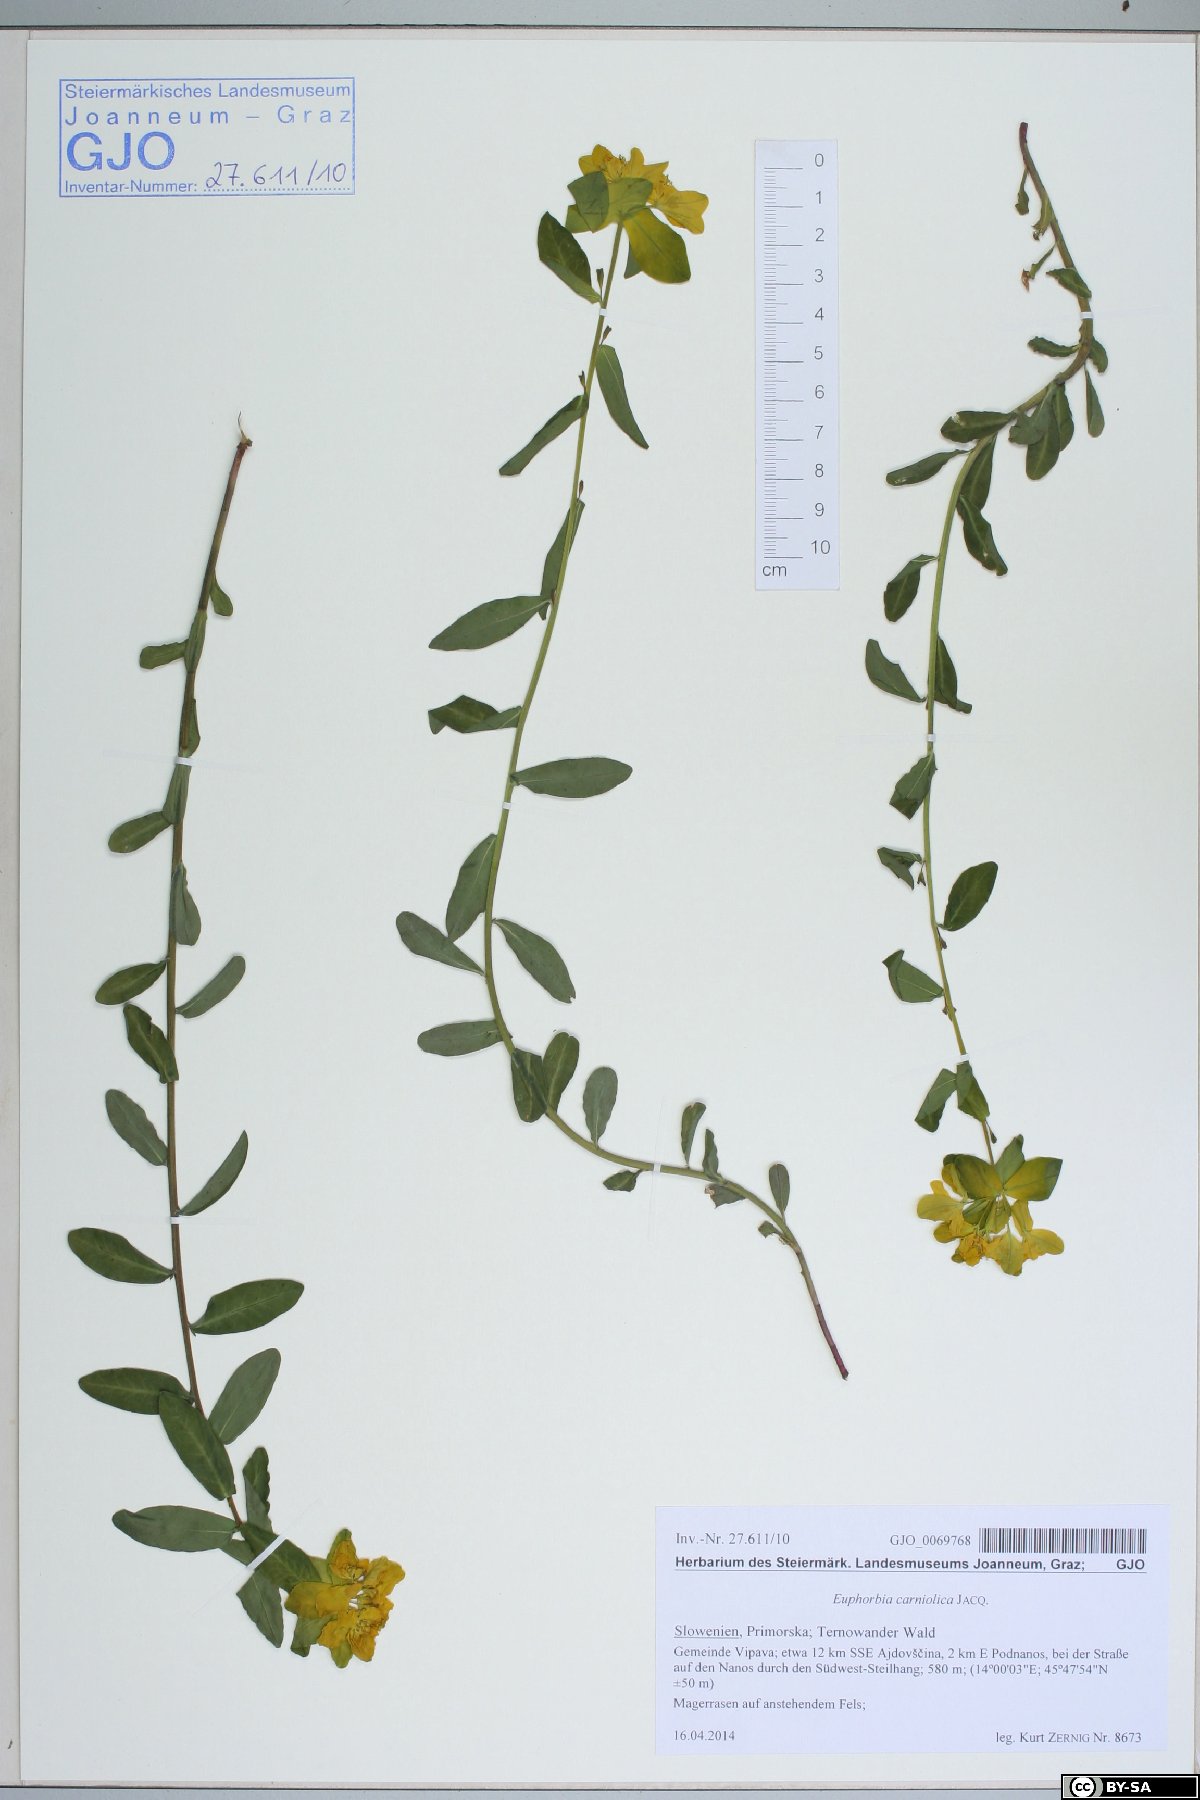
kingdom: Plantae
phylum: Tracheophyta
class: Magnoliopsida
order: Malpighiales
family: Euphorbiaceae
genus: Euphorbia
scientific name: Euphorbia carniolica
